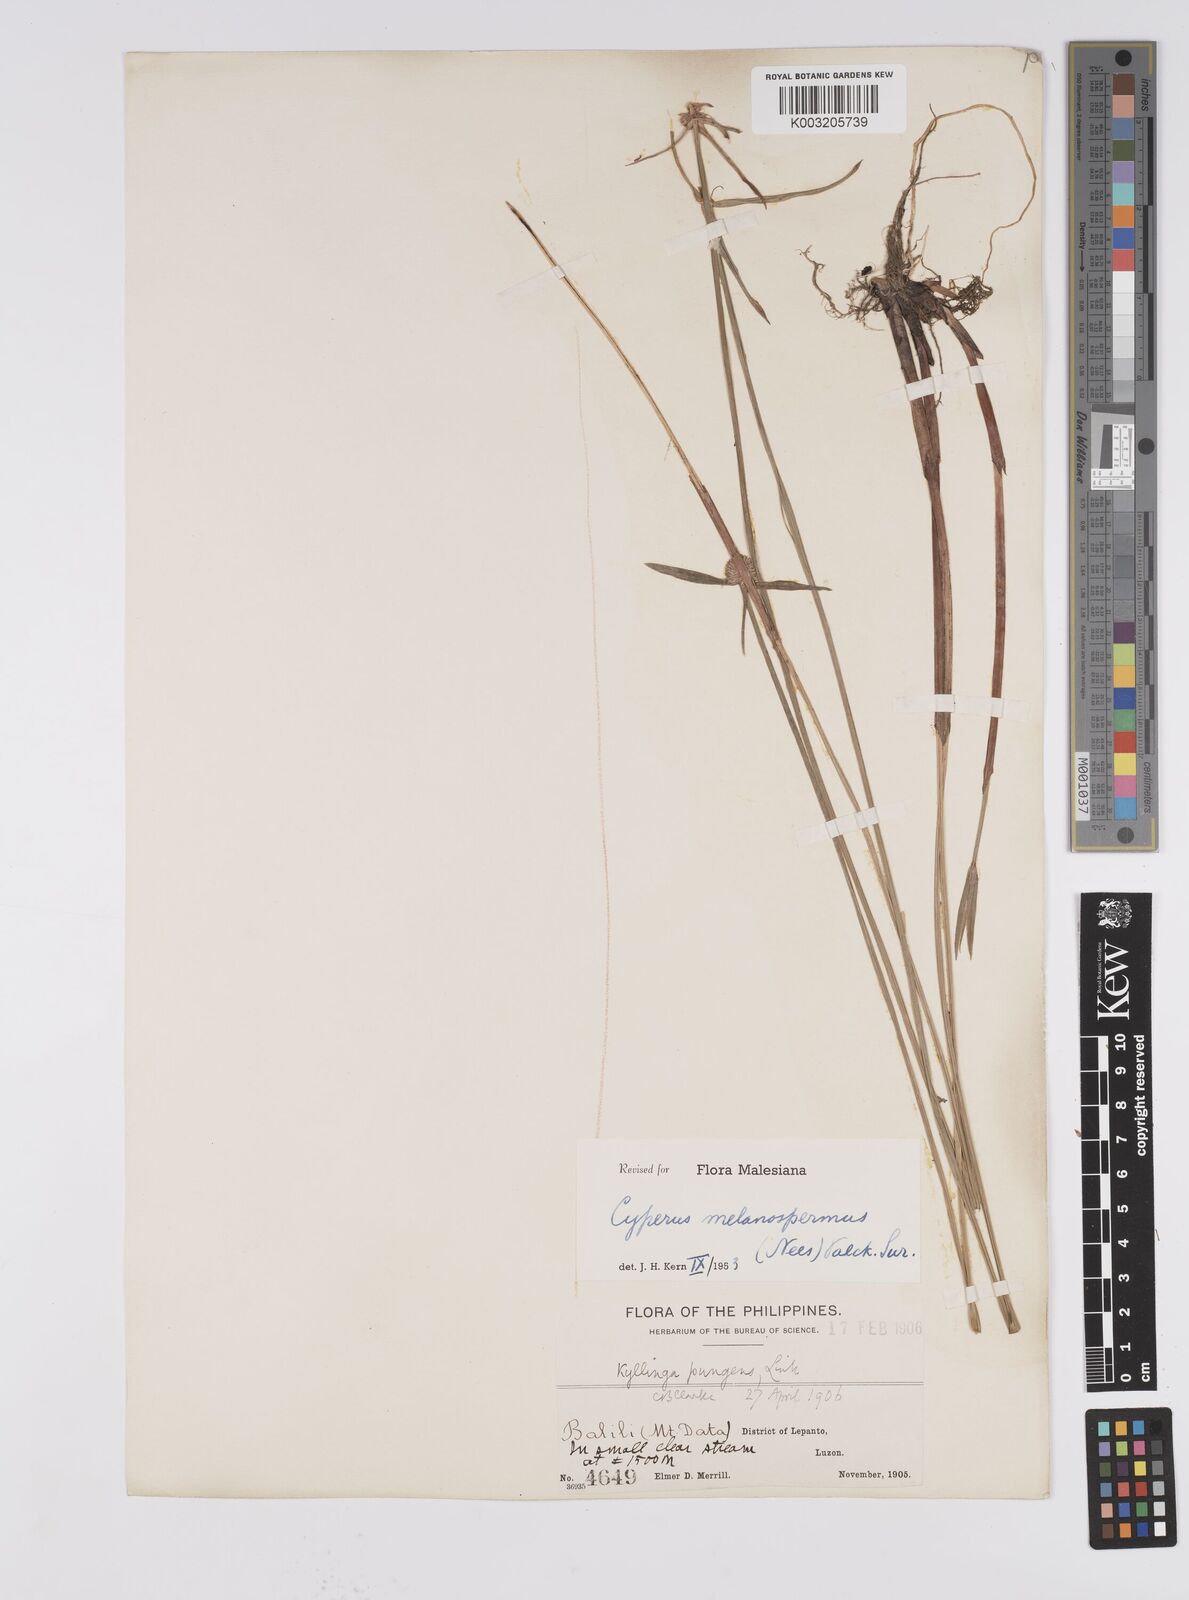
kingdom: Plantae
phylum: Tracheophyta
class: Liliopsida
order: Poales
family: Cyperaceae
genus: Cyperus
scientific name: Cyperus melanospermus
